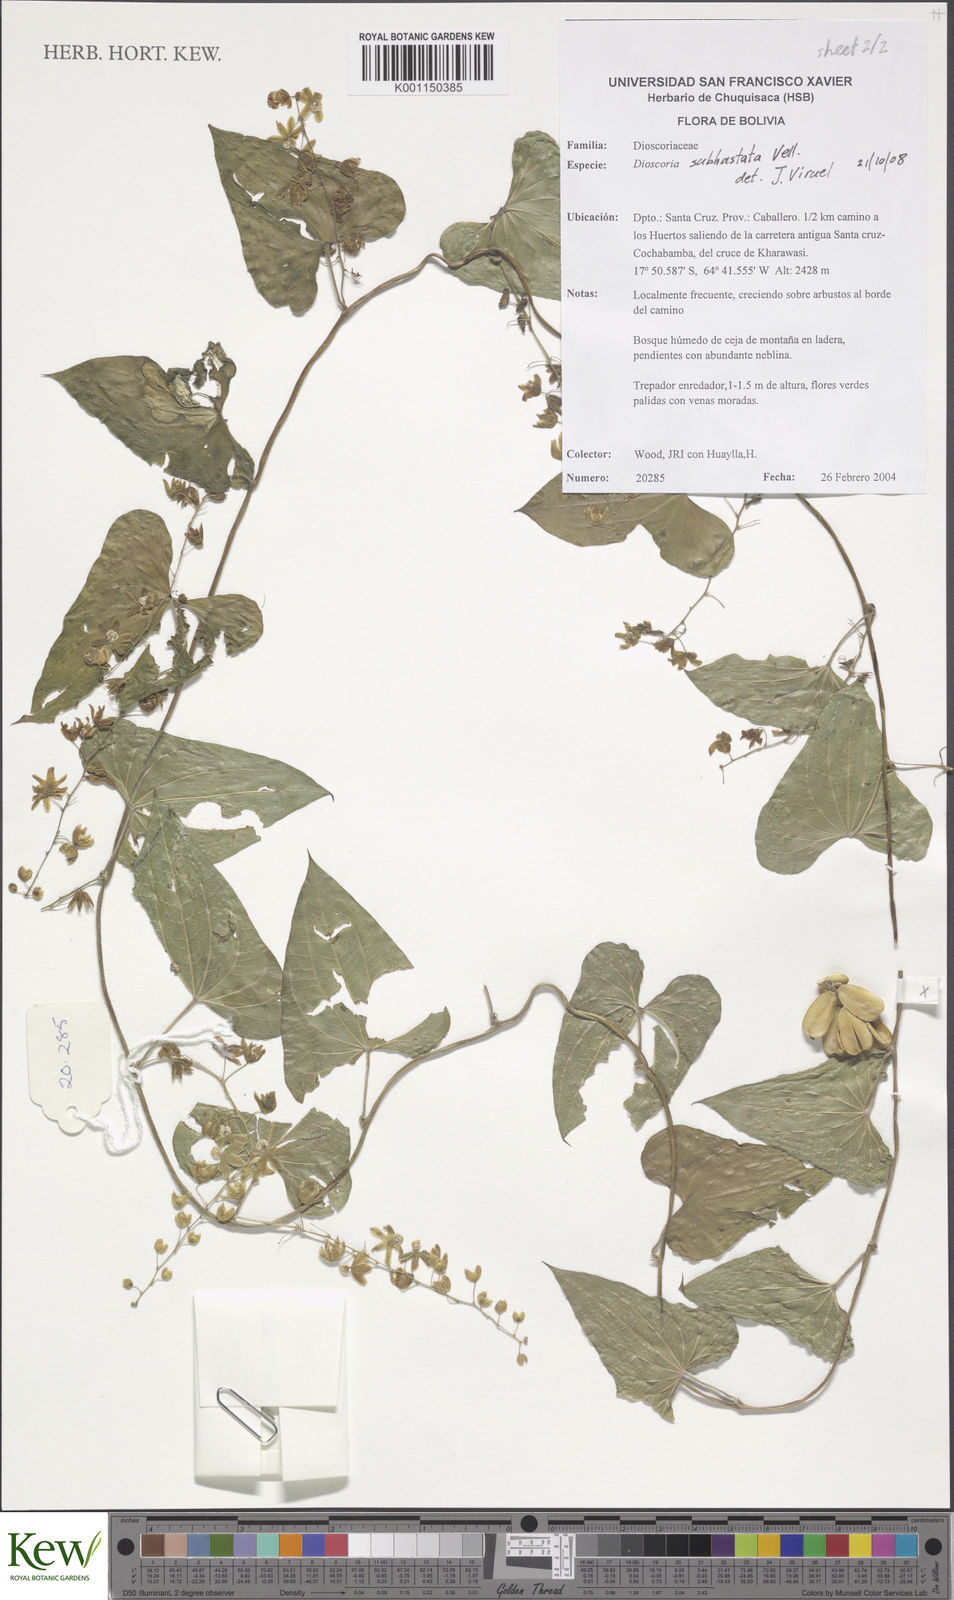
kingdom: Plantae
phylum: Tracheophyta
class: Liliopsida
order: Dioscoreales
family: Dioscoreaceae
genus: Dioscorea
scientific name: Dioscorea monadelpha
